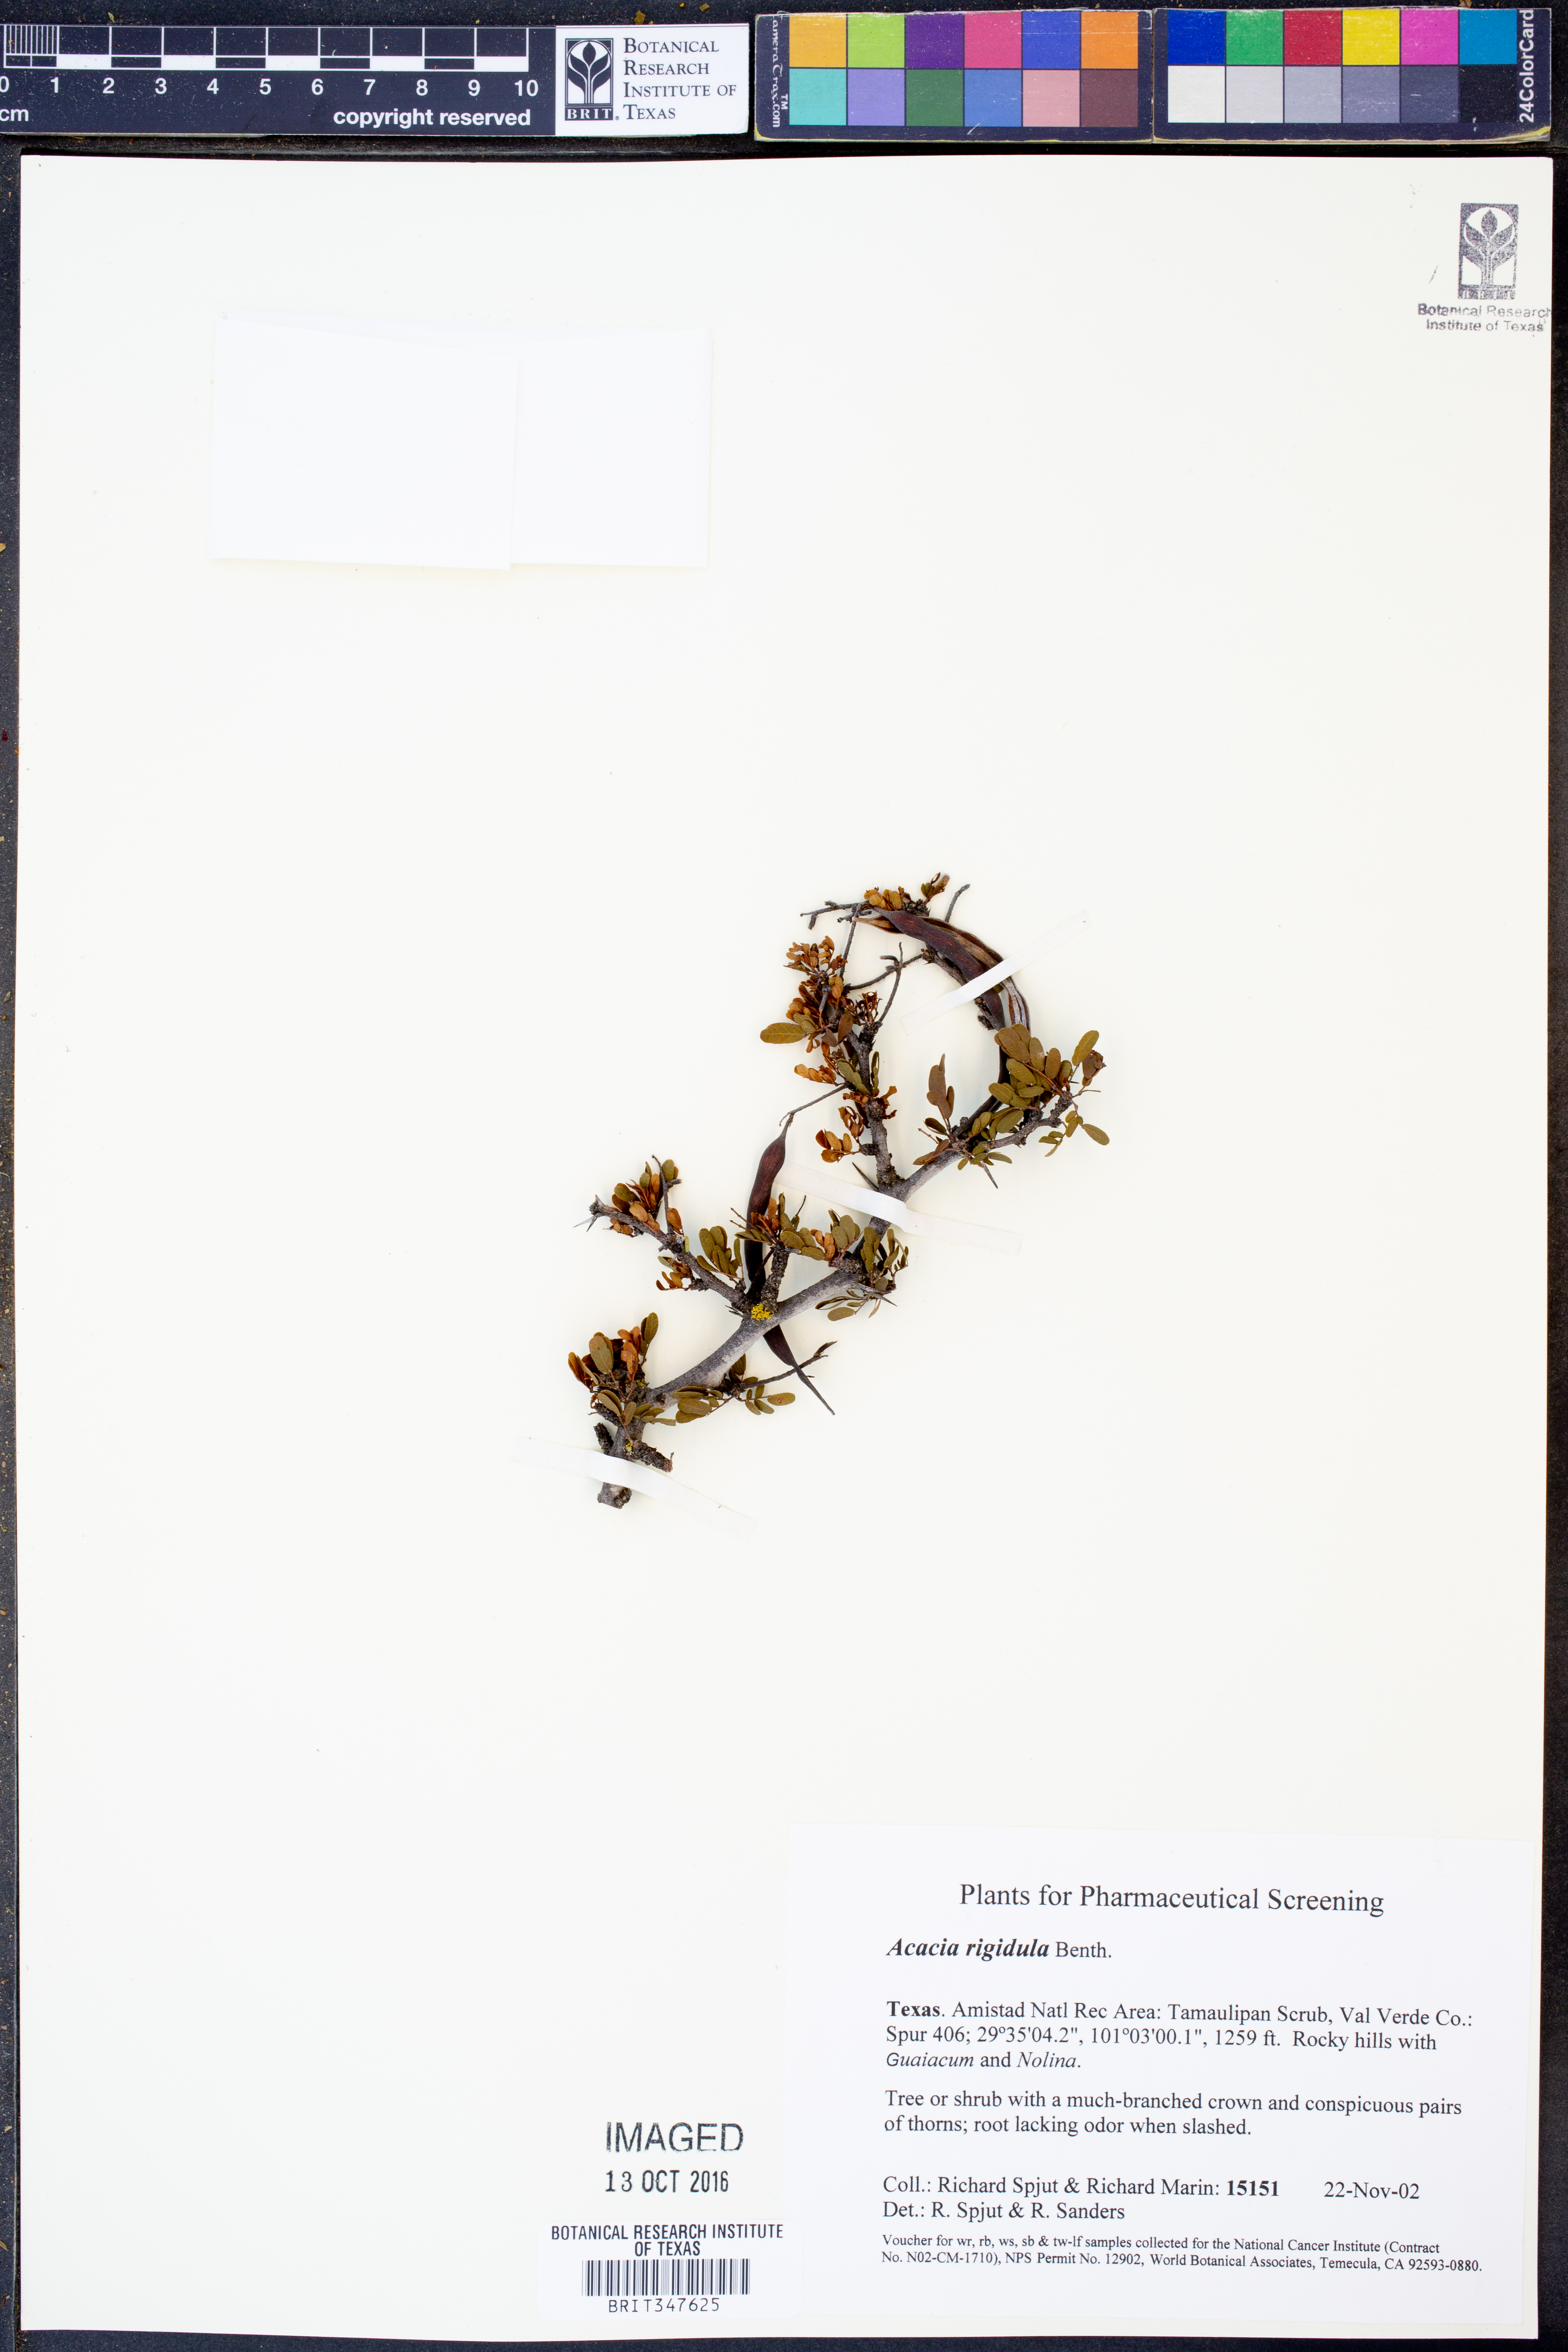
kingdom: Plantae
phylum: Tracheophyta
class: Magnoliopsida
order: Fabales
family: Fabaceae
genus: Vachellia
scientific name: Vachellia rigidula
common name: Blackbrush
